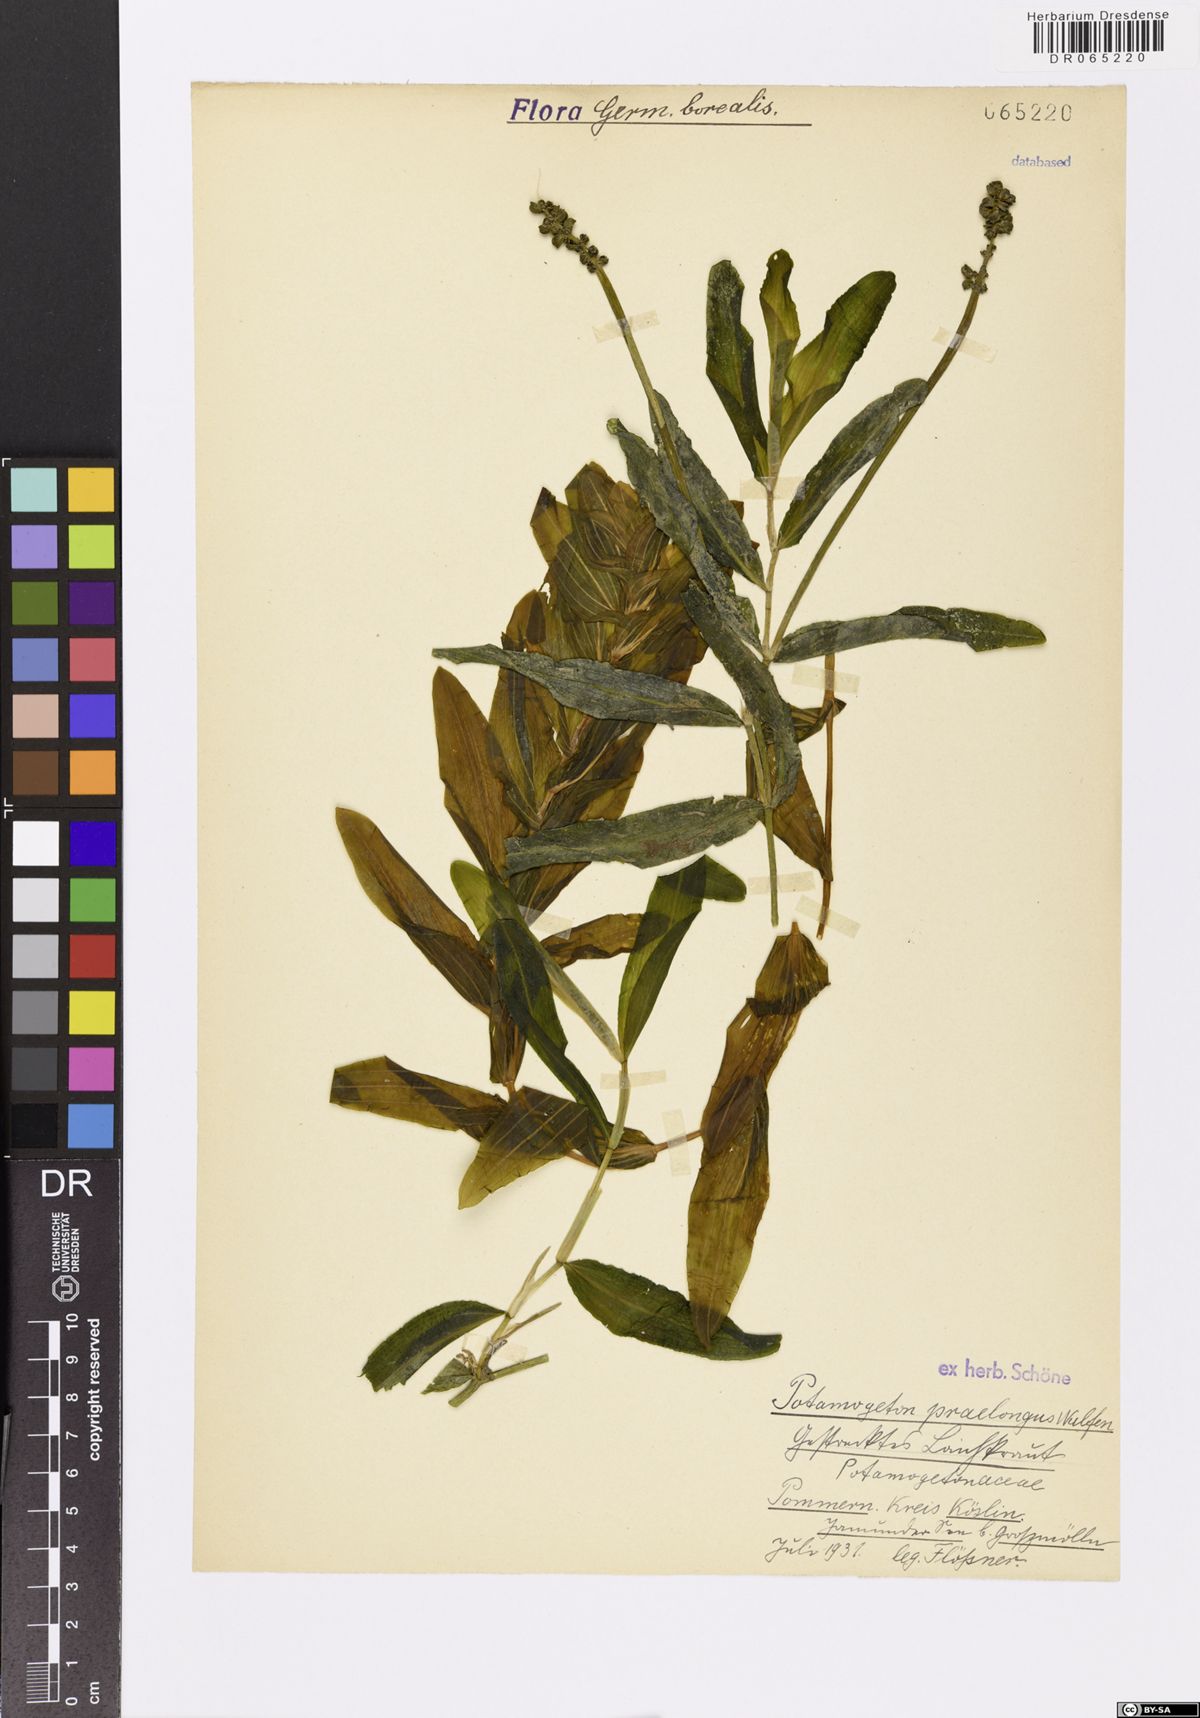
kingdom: Plantae
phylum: Tracheophyta
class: Liliopsida
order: Alismatales
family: Potamogetonaceae
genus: Potamogeton
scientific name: Potamogeton praelongus
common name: Long-stalked pondweed
